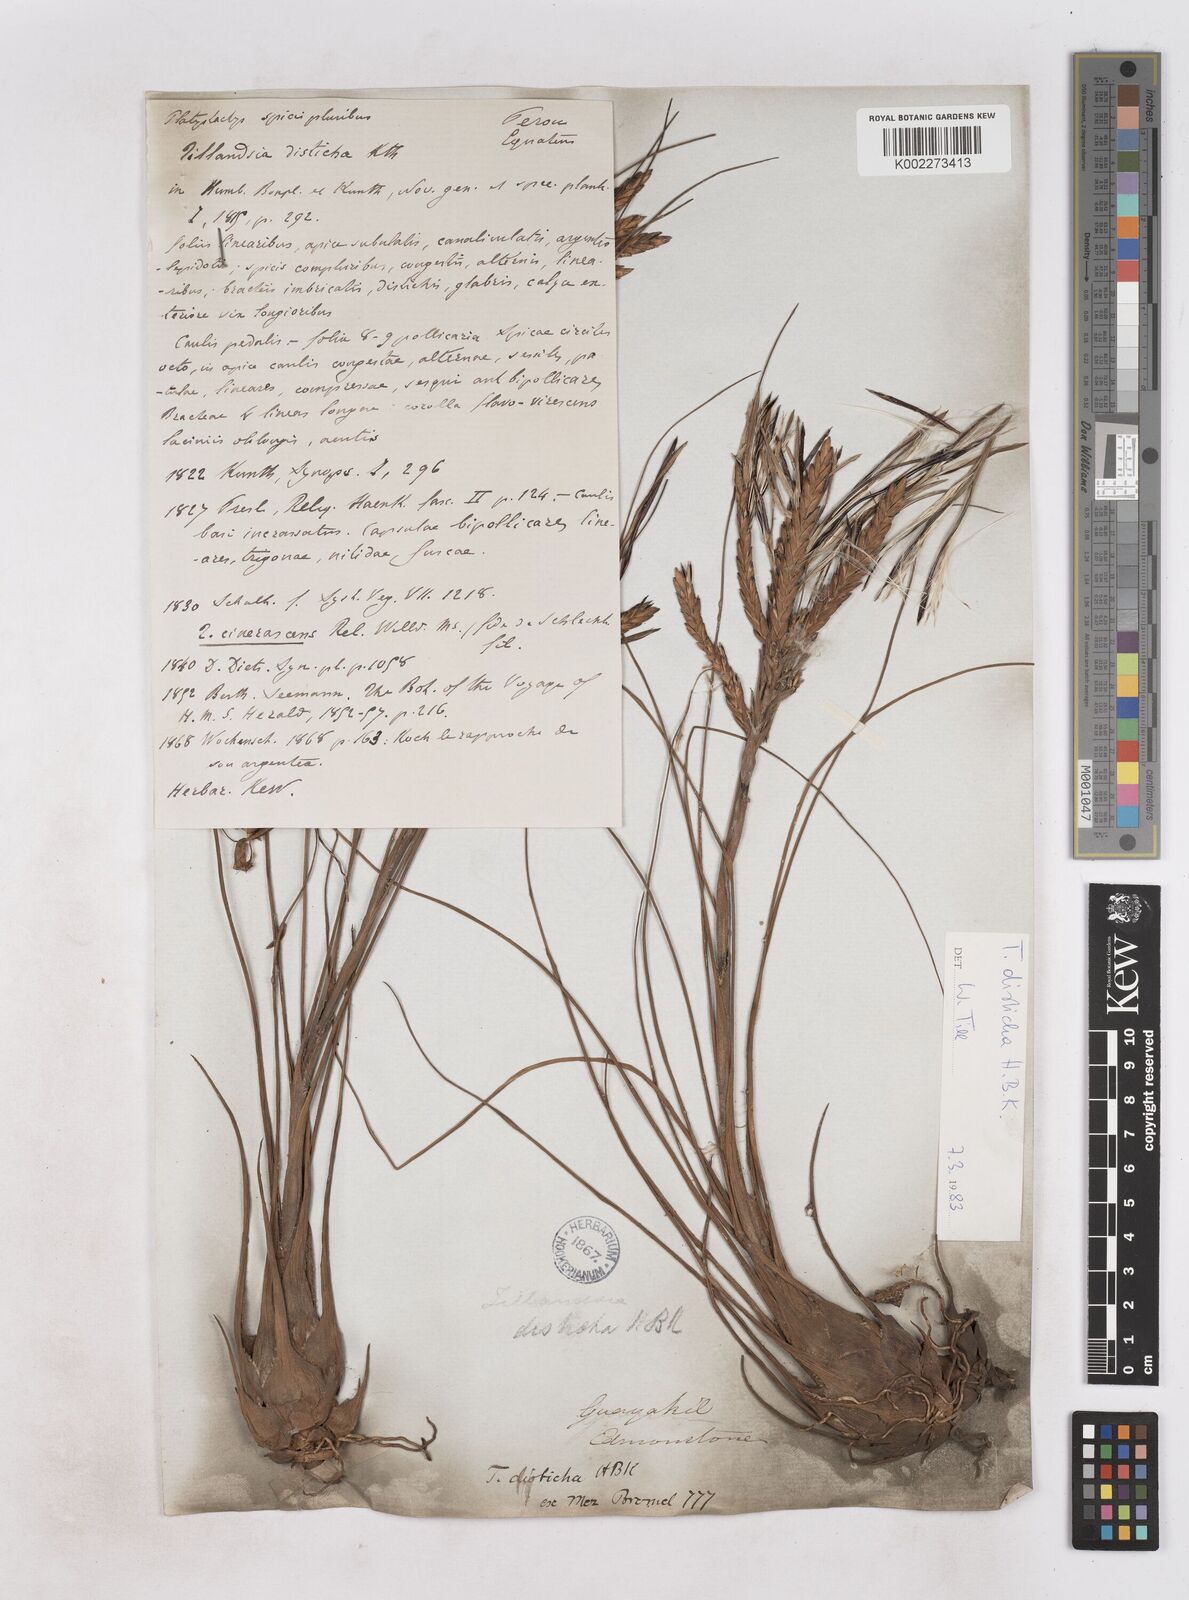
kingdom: Plantae
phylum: Tracheophyta
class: Liliopsida
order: Poales
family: Bromeliaceae
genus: Tillandsia
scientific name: Tillandsia
